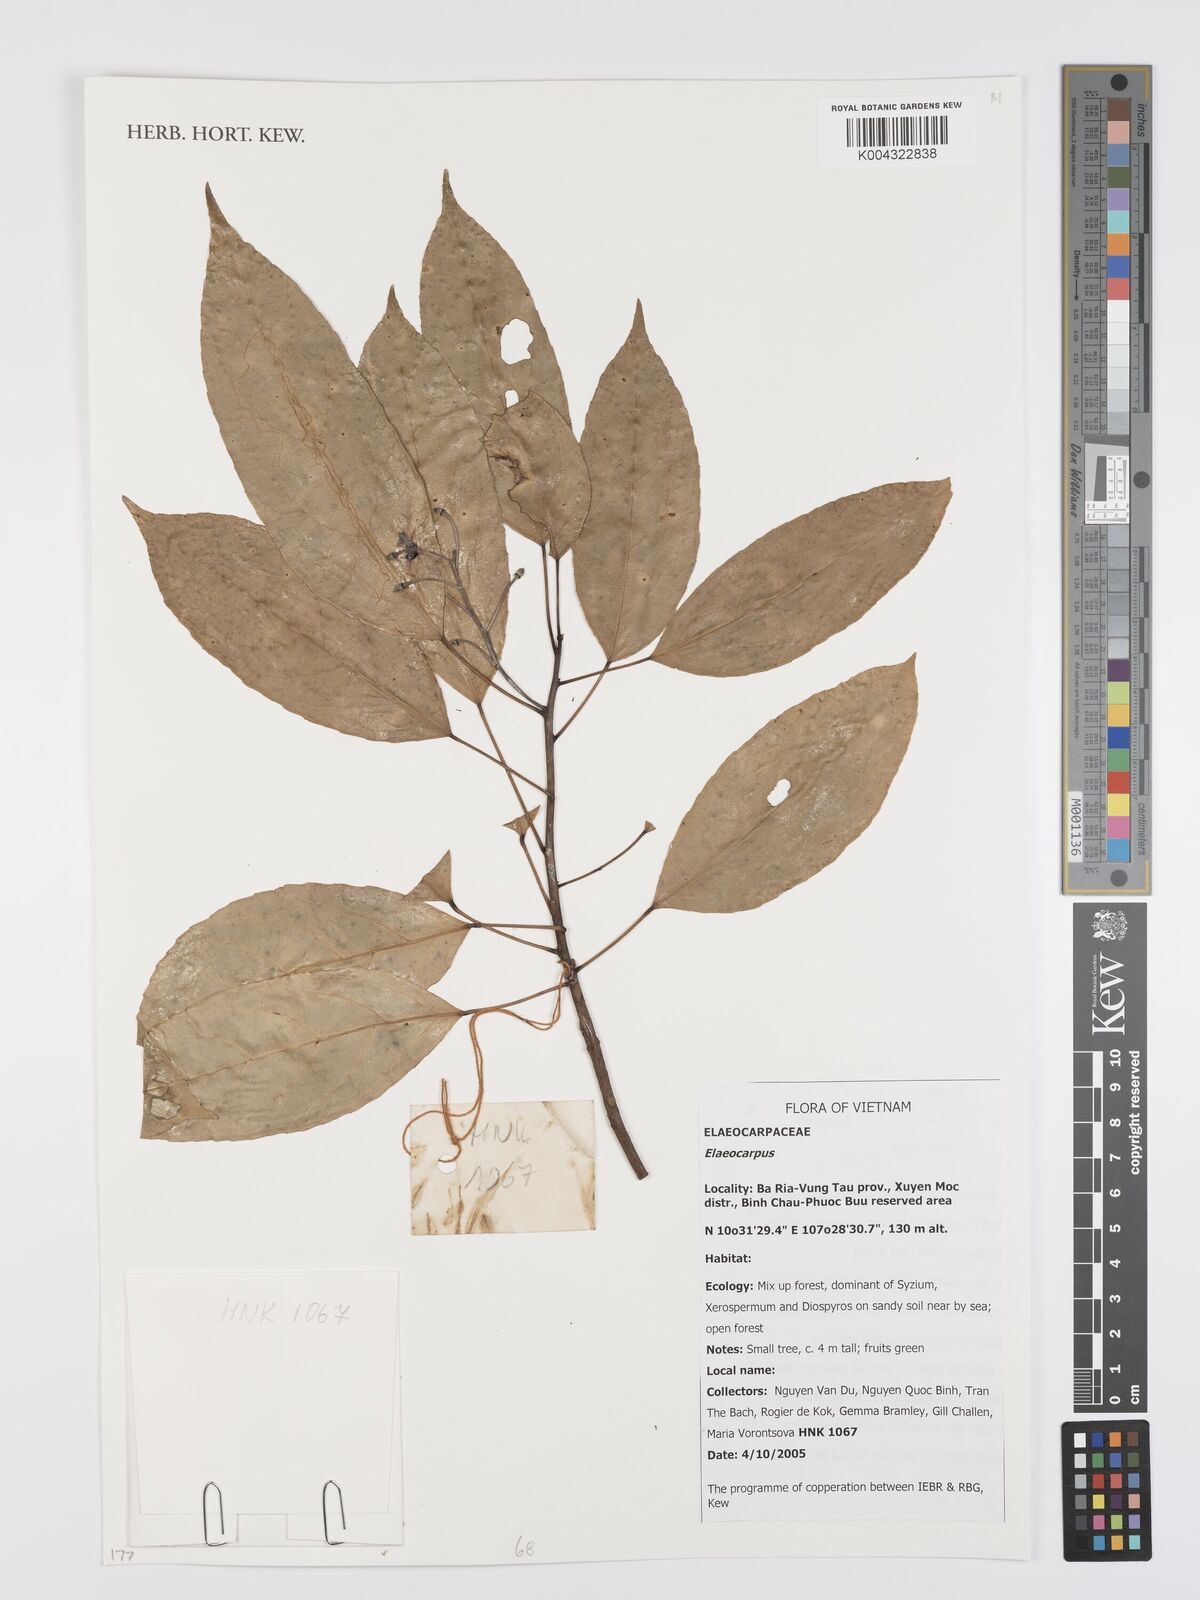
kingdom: Plantae
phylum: Tracheophyta
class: Magnoliopsida
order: Oxalidales
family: Elaeocarpaceae
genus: Elaeocarpus
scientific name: Elaeocarpus
